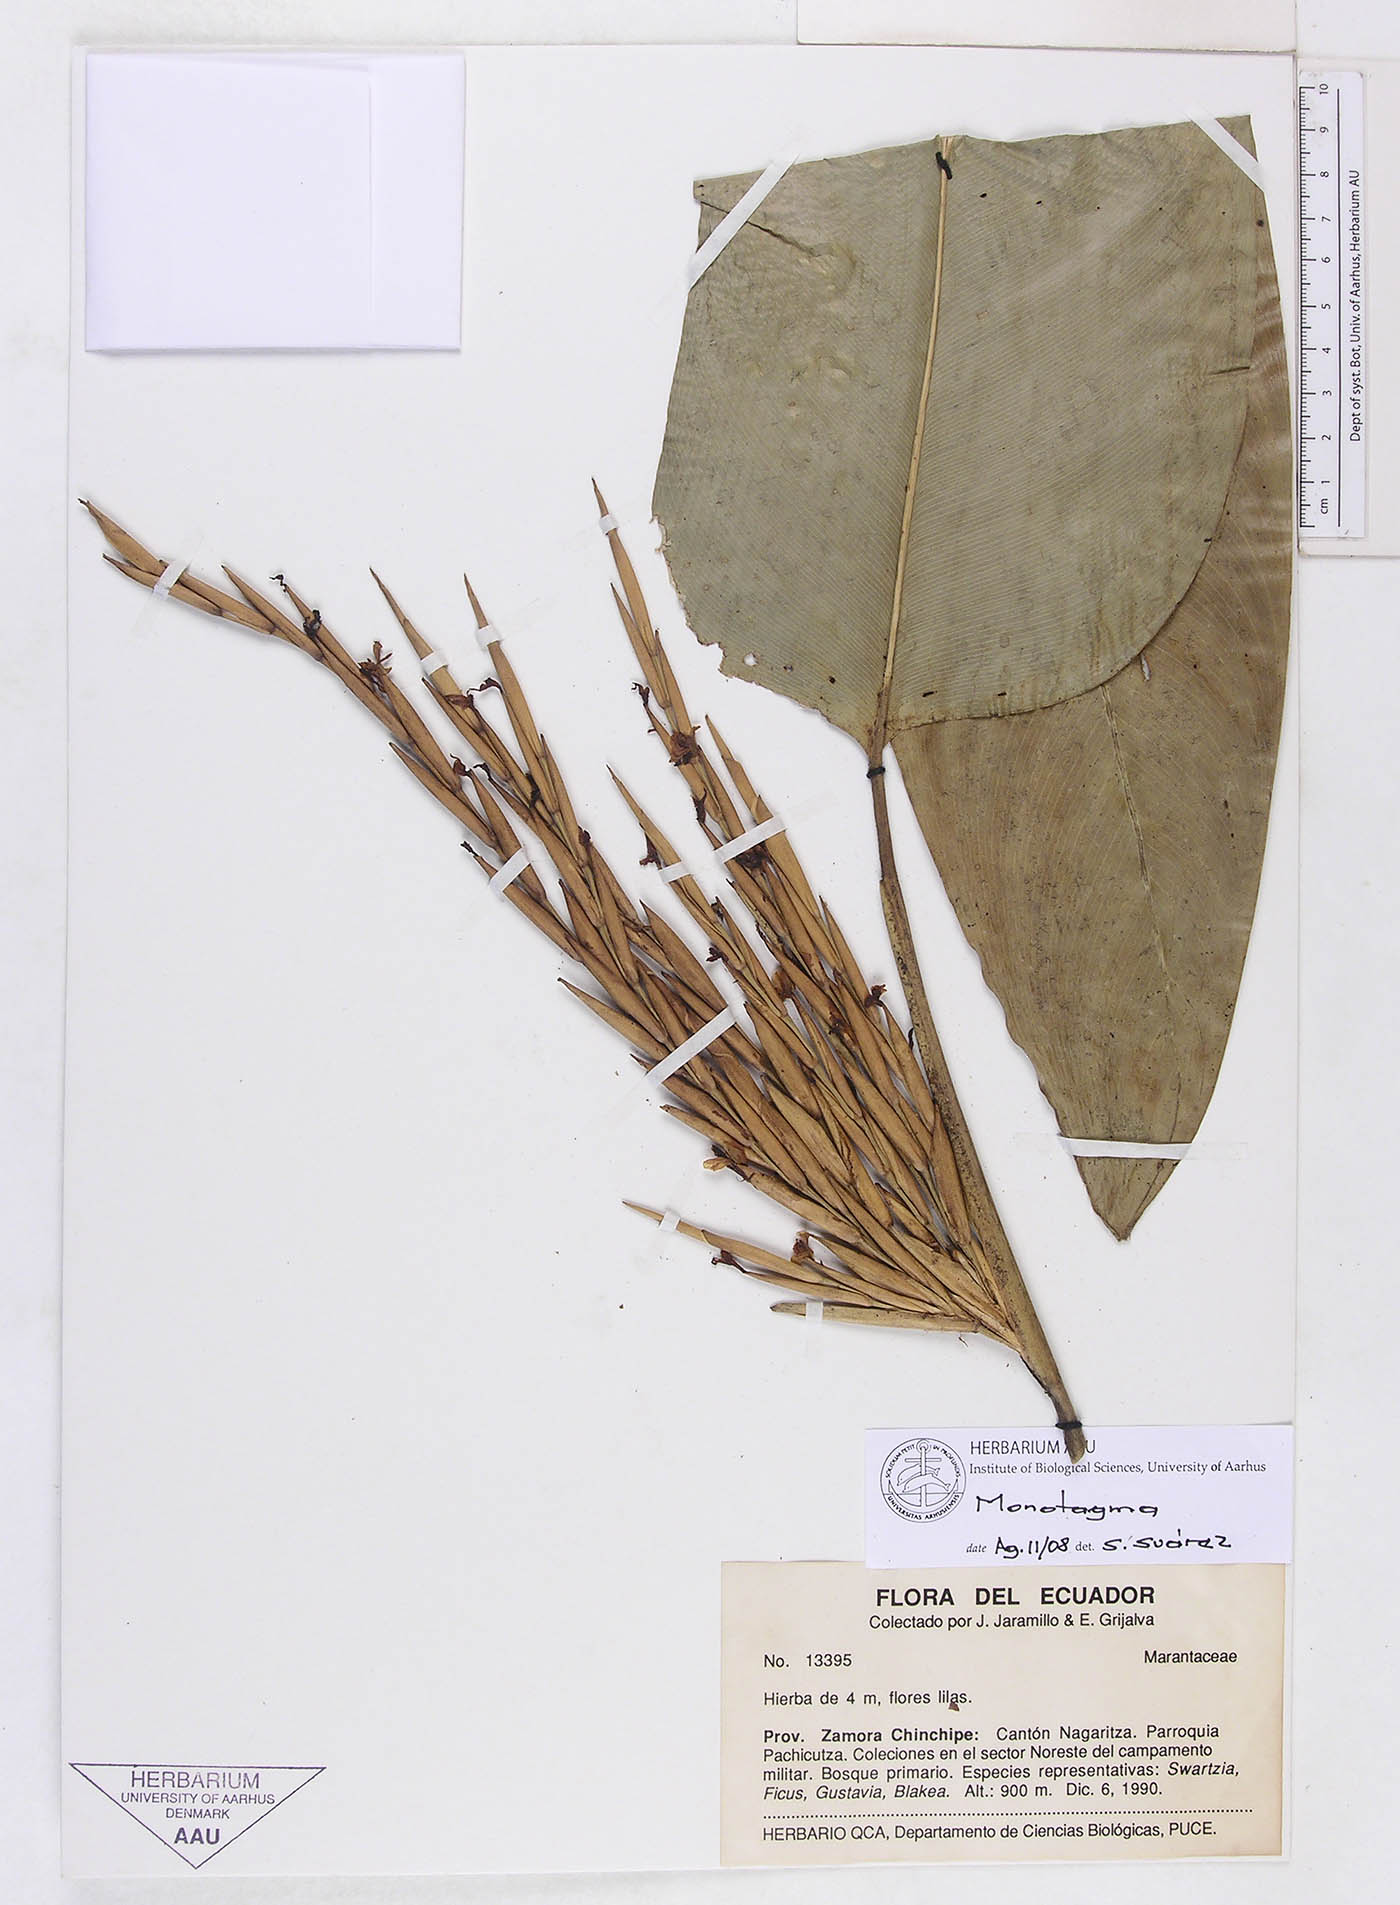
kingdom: Plantae
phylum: Tracheophyta
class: Liliopsida
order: Zingiberales
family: Marantaceae
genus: Monotagma
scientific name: Monotagma
